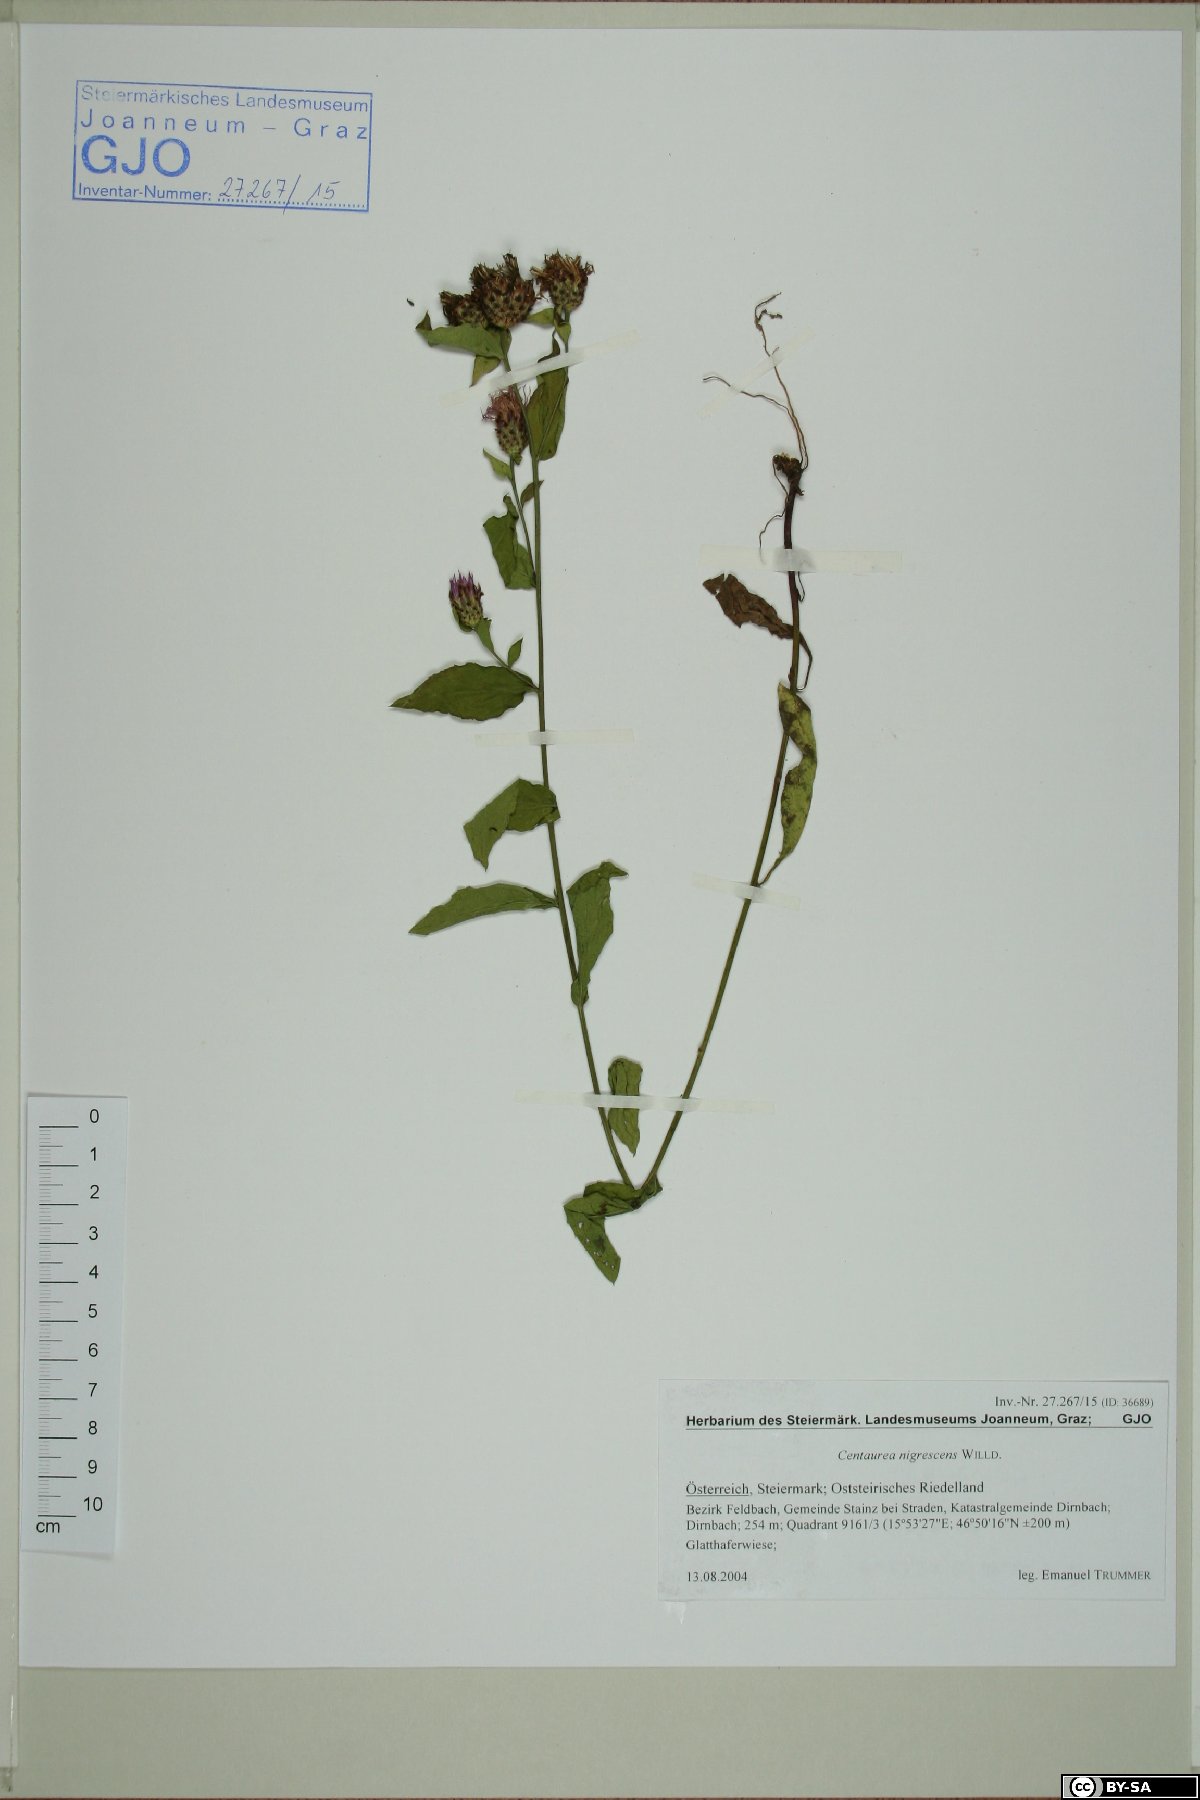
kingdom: Plantae
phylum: Tracheophyta
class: Magnoliopsida
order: Asterales
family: Asteraceae
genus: Centaurea
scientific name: Centaurea nigrescens
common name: Tyrol knapweed
